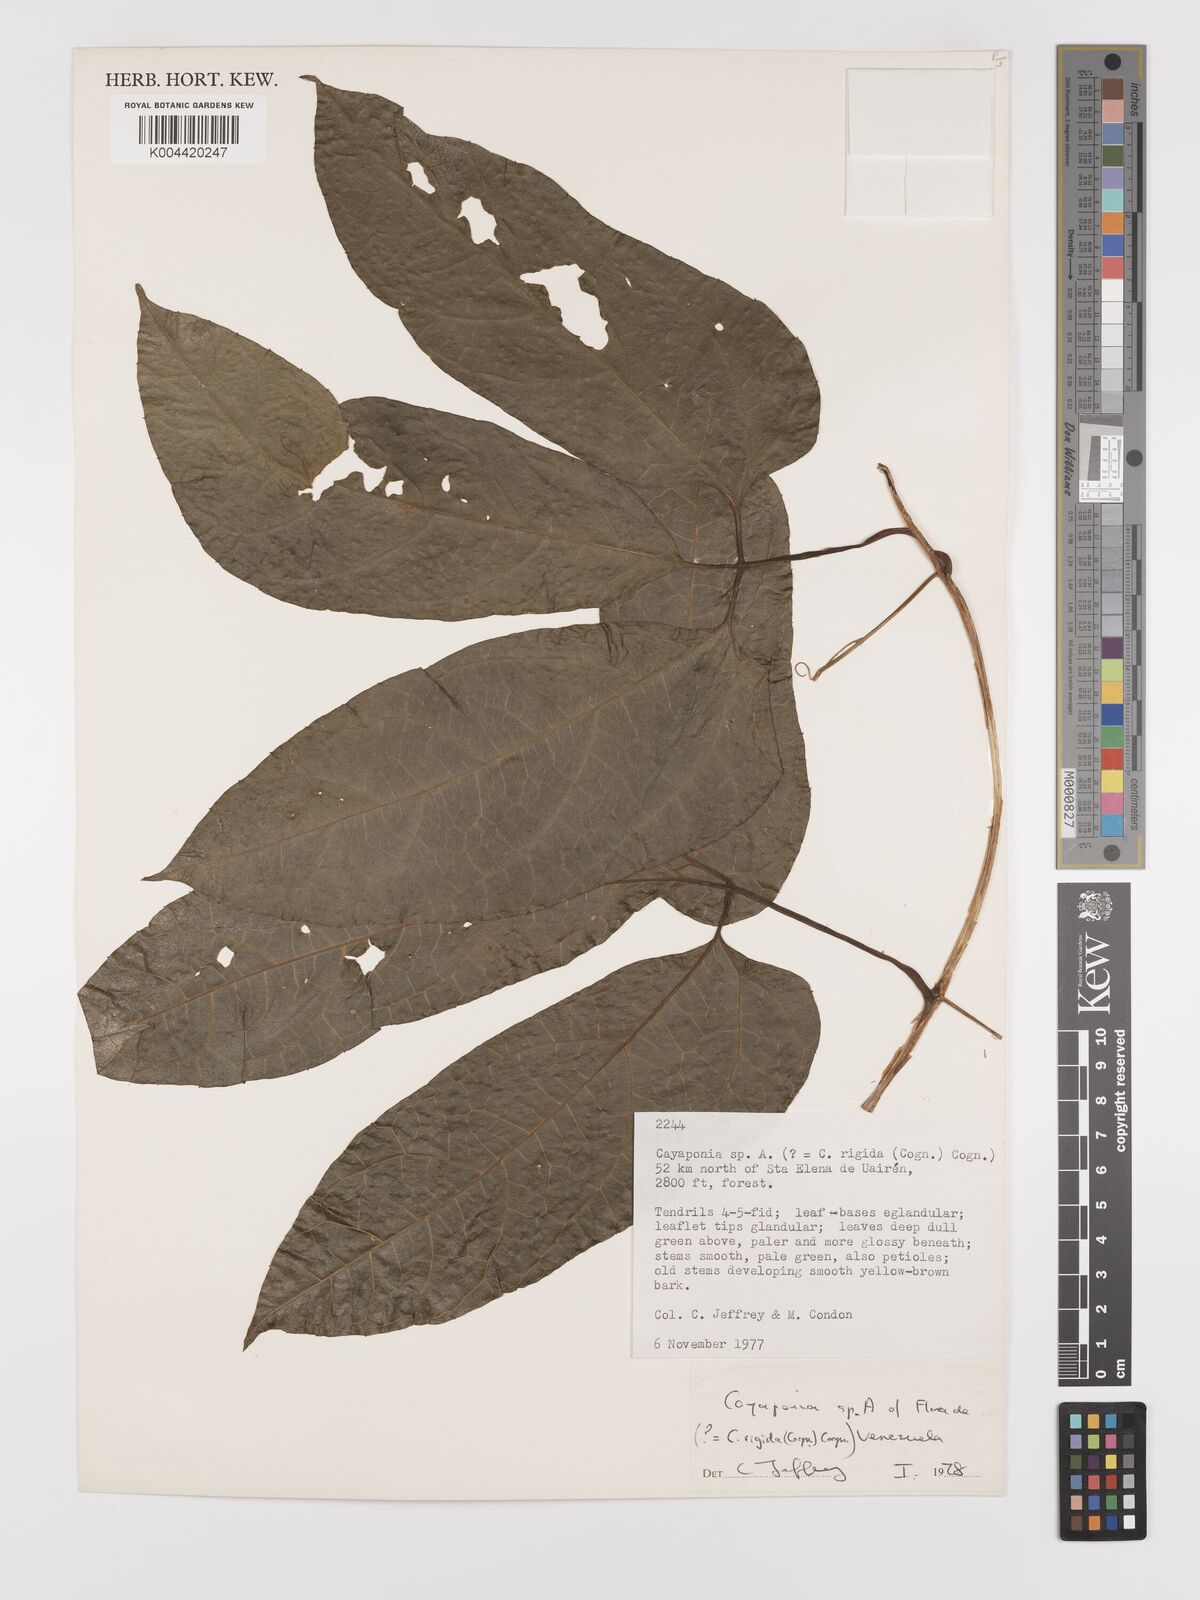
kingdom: Plantae
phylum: Tracheophyta
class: Magnoliopsida
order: Cucurbitales
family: Cucurbitaceae
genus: Cayaponia
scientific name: Cayaponia rigida
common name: Boskomkommer
